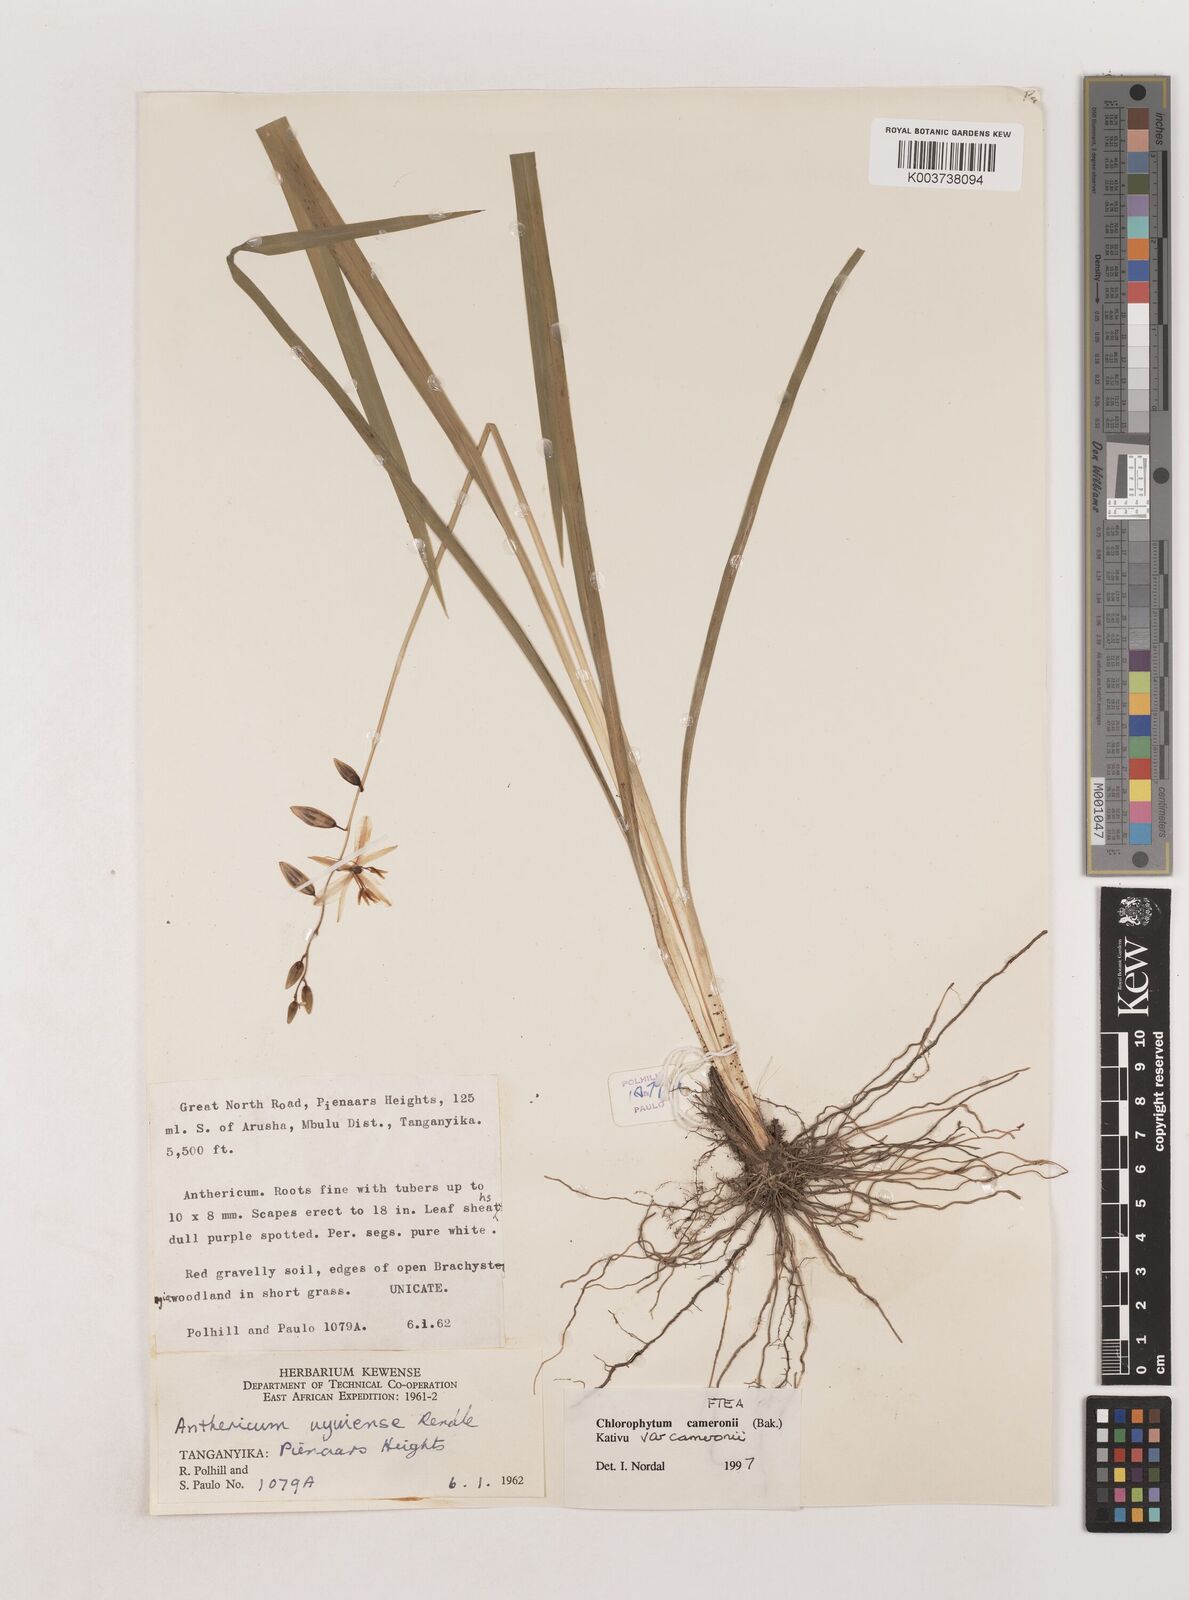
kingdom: Plantae
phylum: Tracheophyta
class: Liliopsida
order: Asparagales
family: Asparagaceae
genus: Chlorophytum
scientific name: Chlorophytum cameronii
